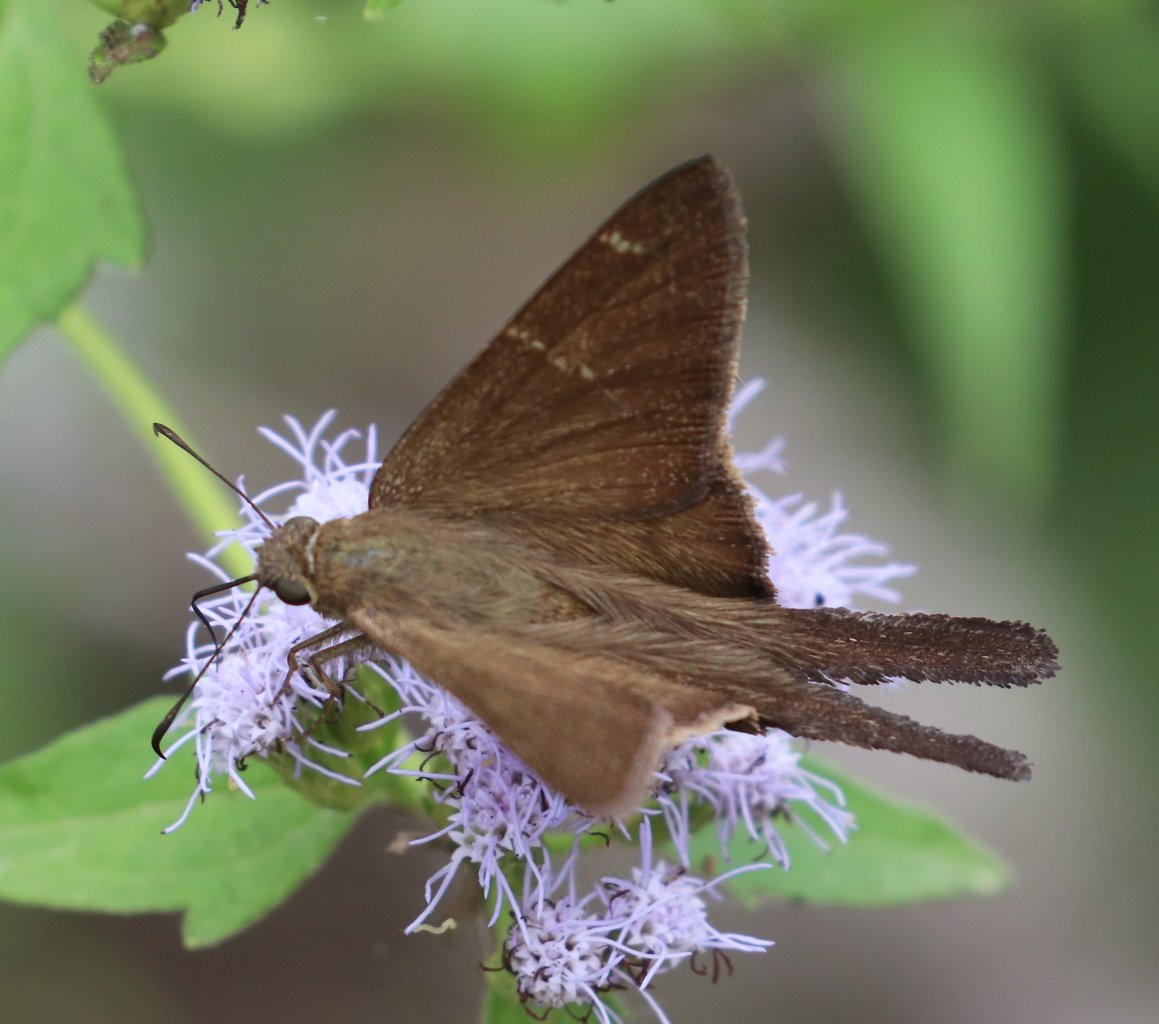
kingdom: Animalia
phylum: Arthropoda
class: Insecta
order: Lepidoptera
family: Hesperiidae
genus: Urbanus
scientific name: Urbanus procne
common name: Brown Longtail
